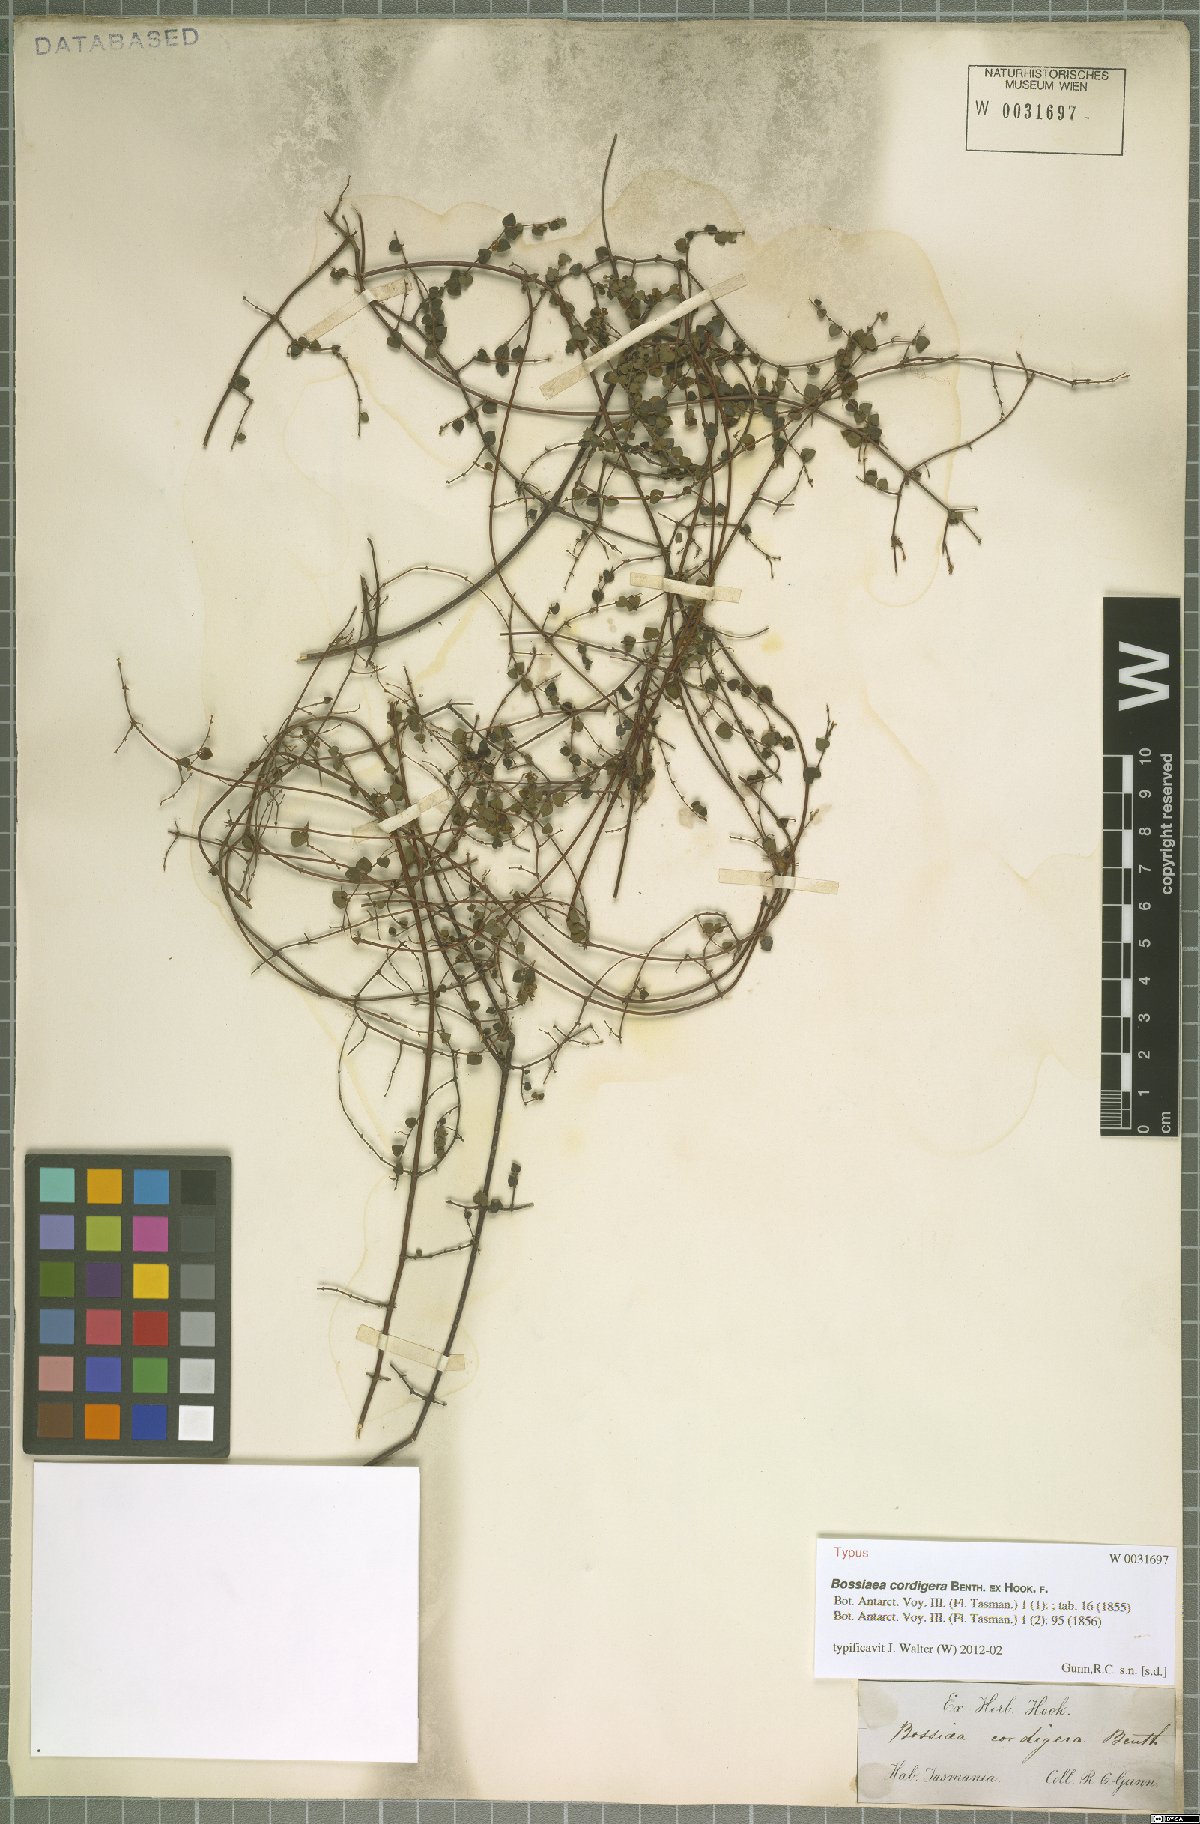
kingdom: Plantae
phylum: Tracheophyta
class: Magnoliopsida
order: Fabales
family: Fabaceae
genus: Bossiaea
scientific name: Bossiaea hendersonii
